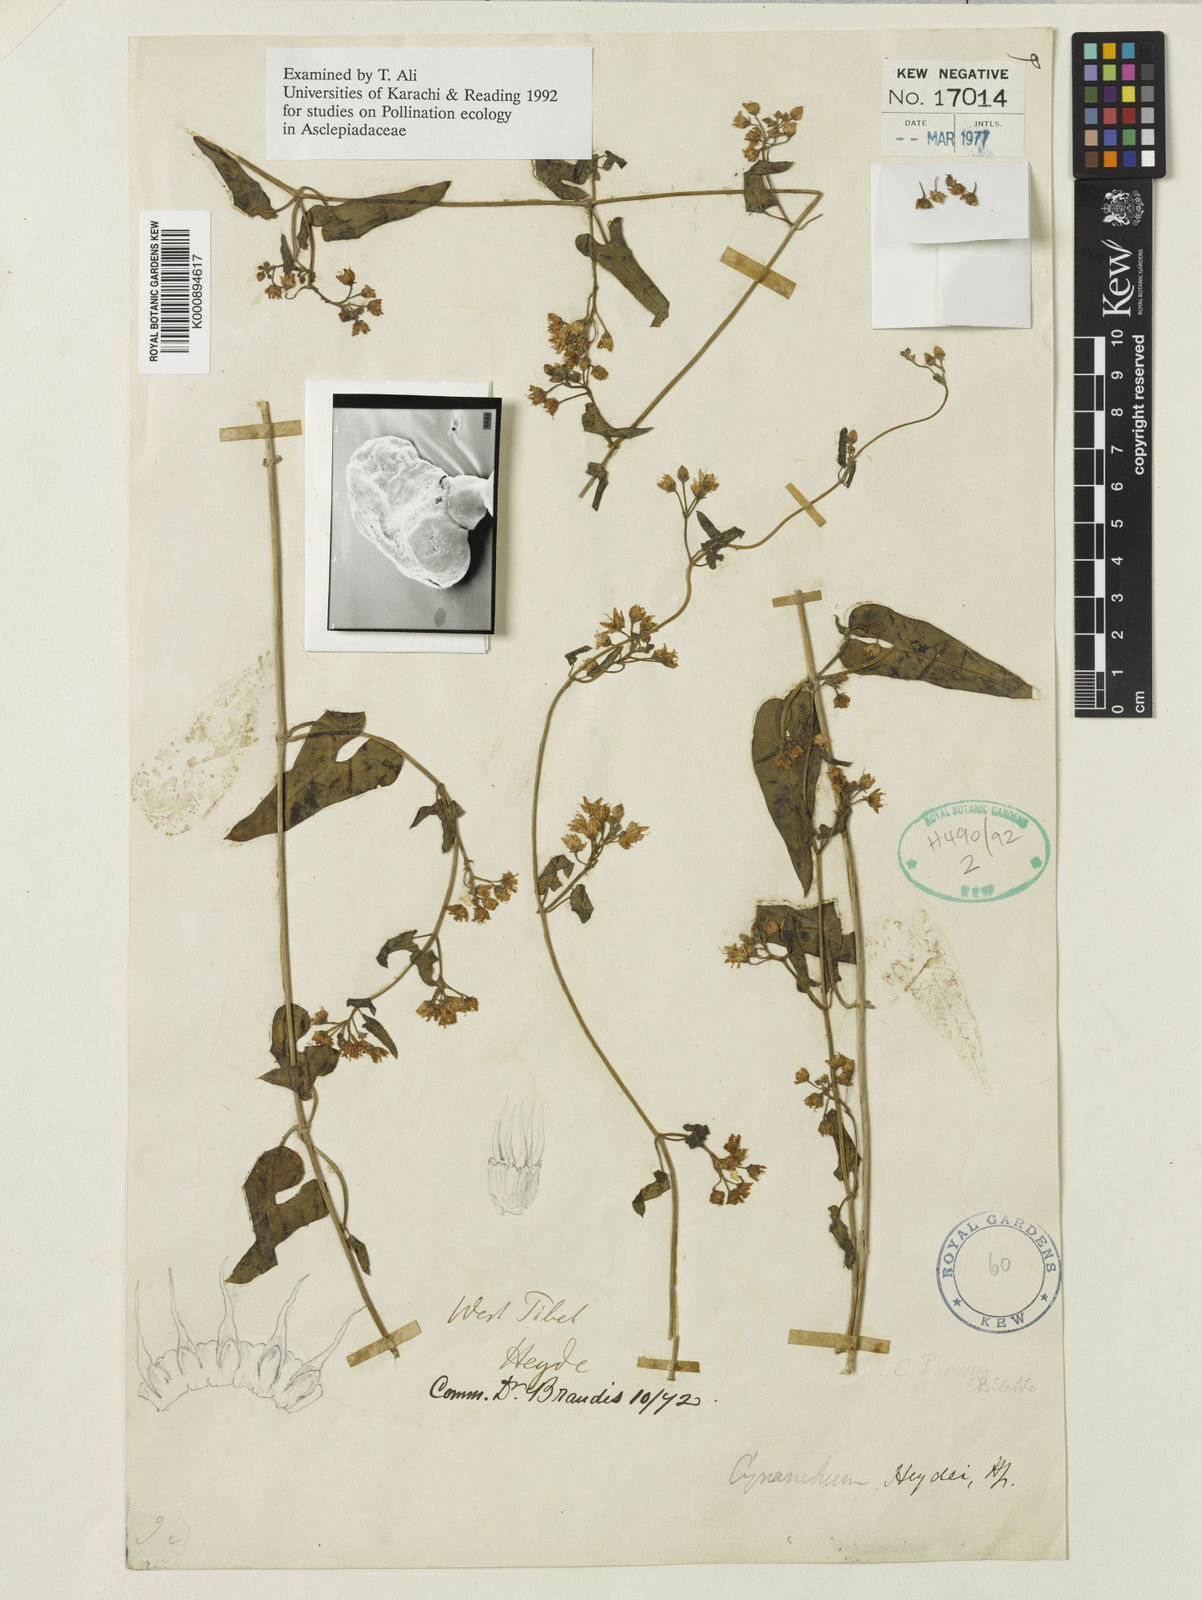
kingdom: Plantae
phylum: Tracheophyta
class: Magnoliopsida
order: Gentianales
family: Apocynaceae
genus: Vincetoxicum
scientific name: Vincetoxicum heydei
